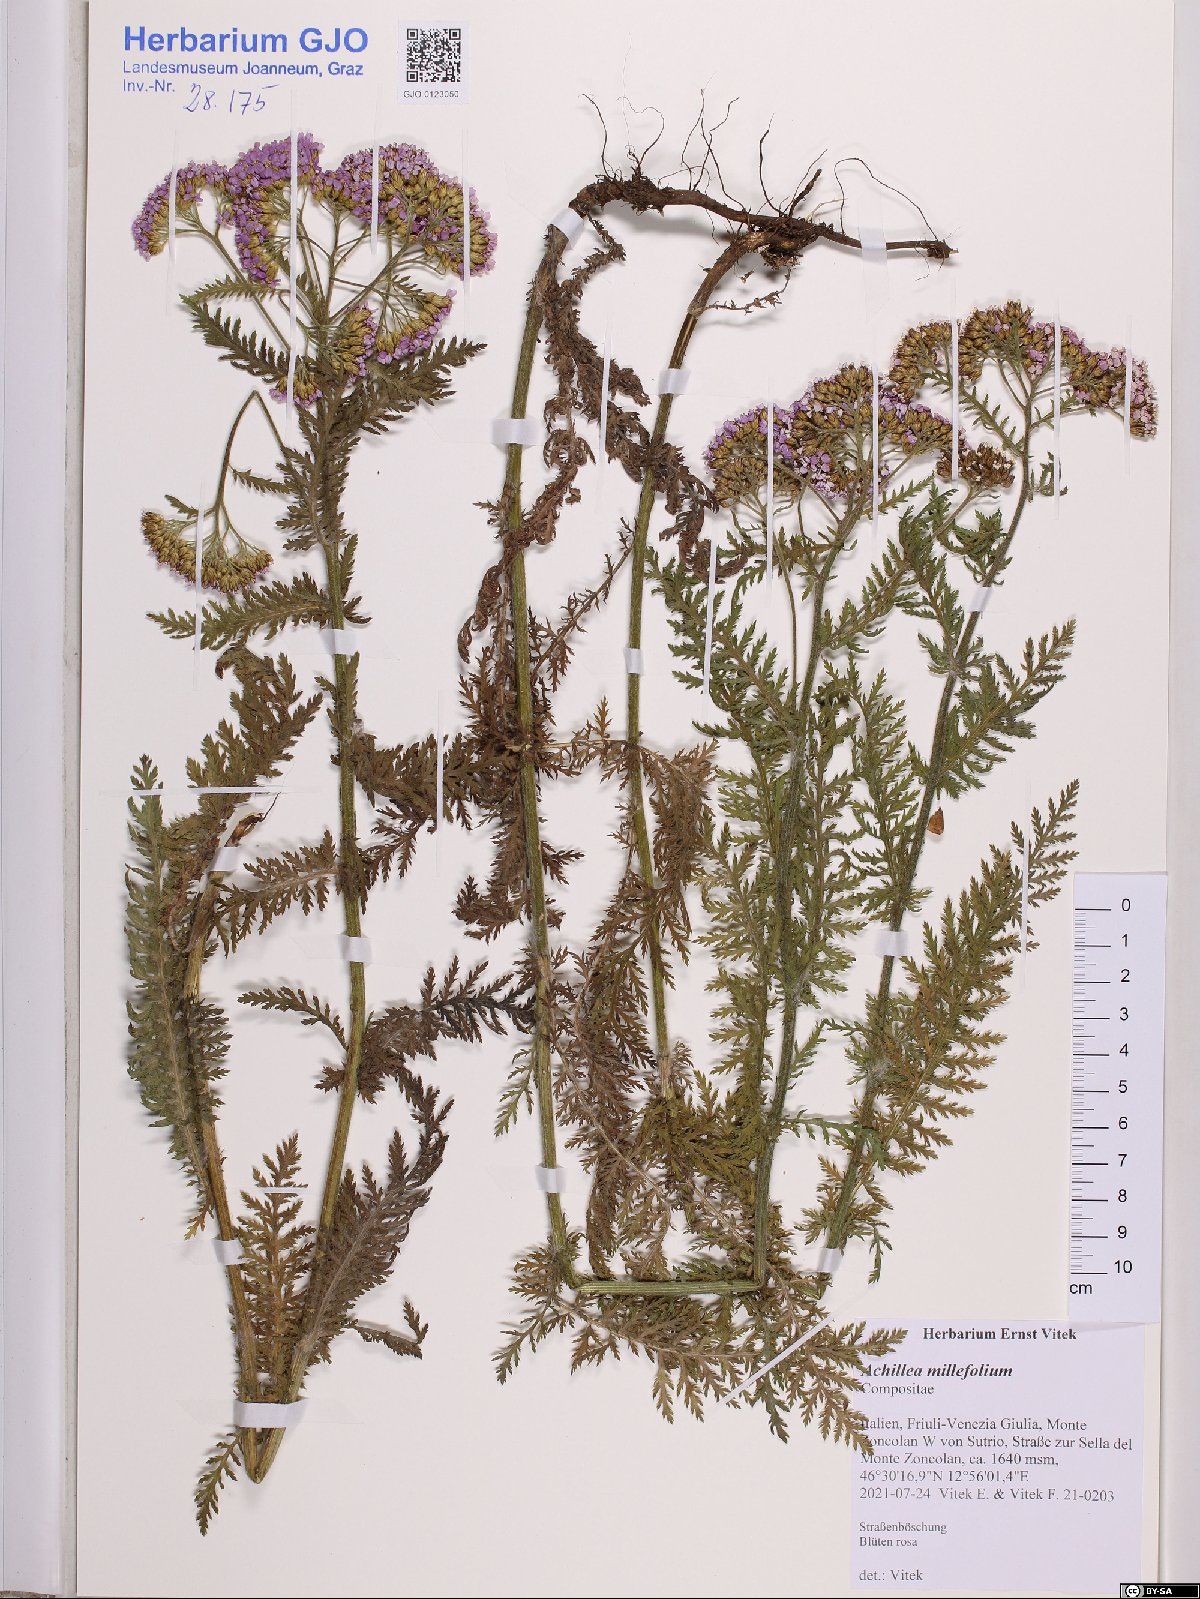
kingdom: Plantae
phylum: Tracheophyta
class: Magnoliopsida
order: Asterales
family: Asteraceae
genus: Achillea
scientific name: Achillea millefolium
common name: Yarrow
